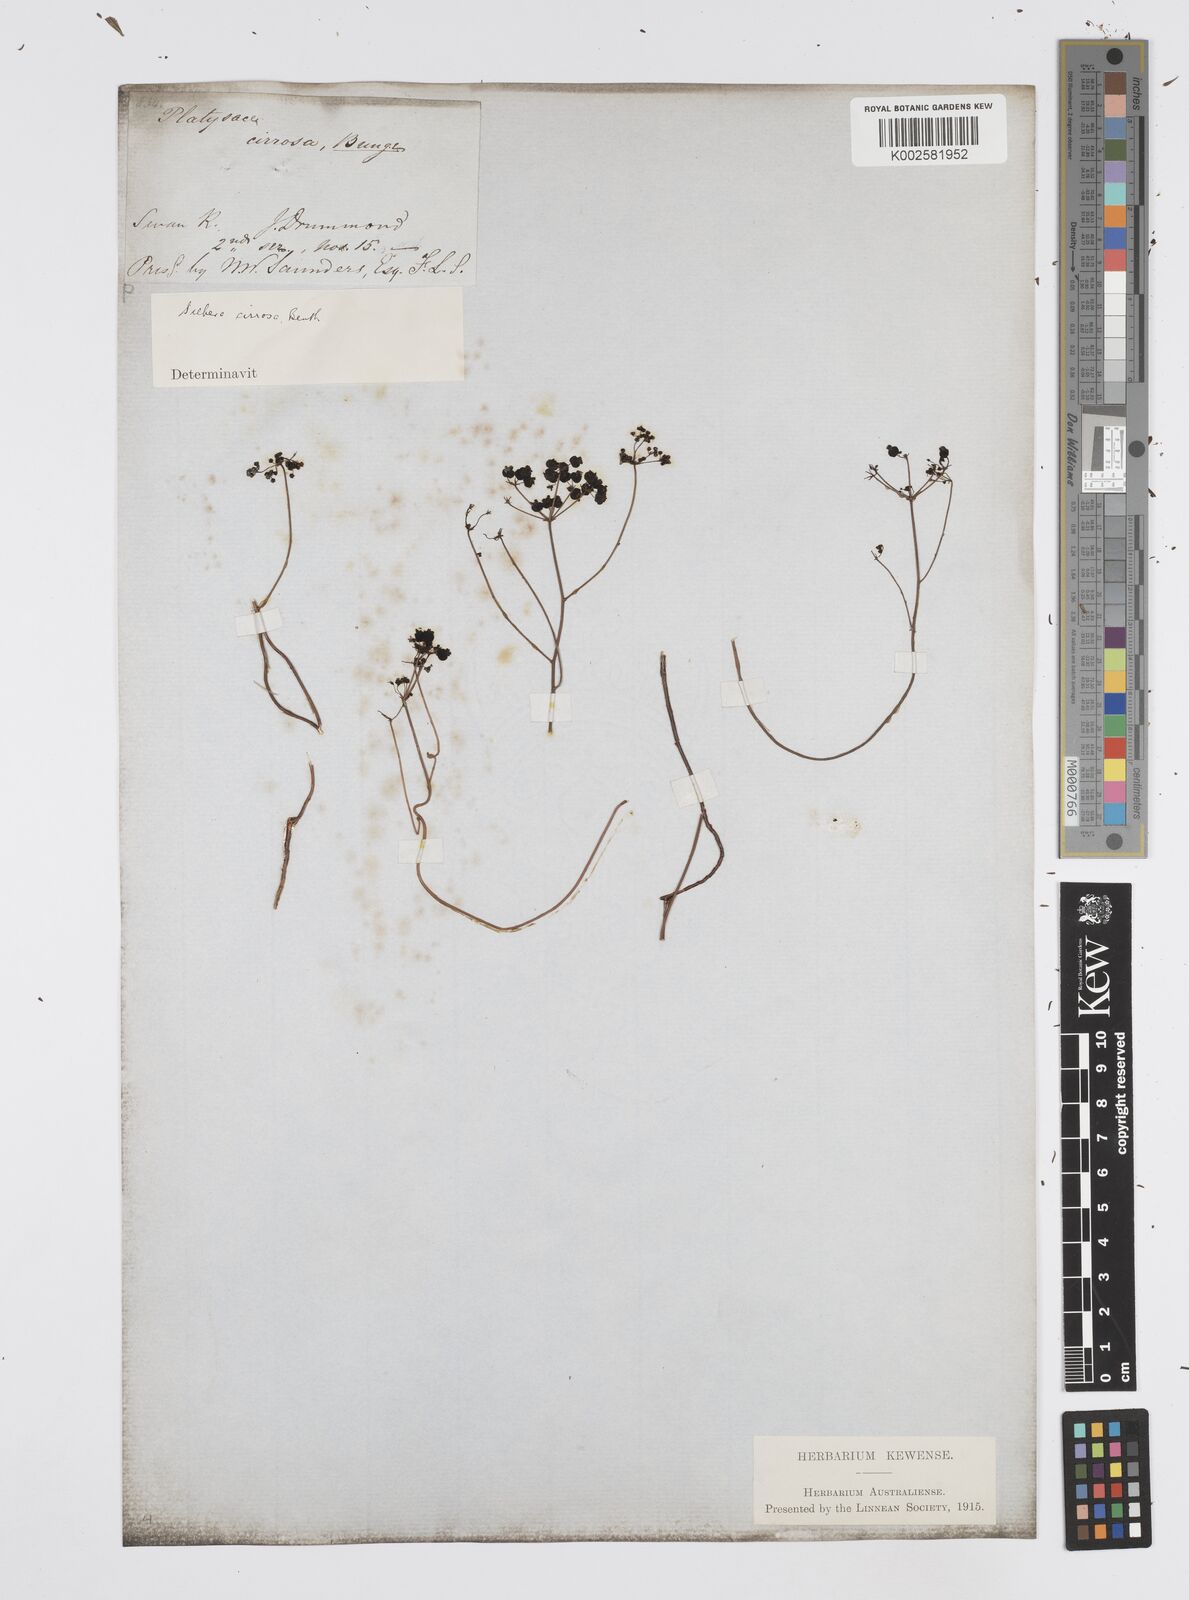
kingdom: Plantae
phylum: Tracheophyta
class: Magnoliopsida
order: Apiales
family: Apiaceae
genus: Platysace
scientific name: Platysace cirrosa
